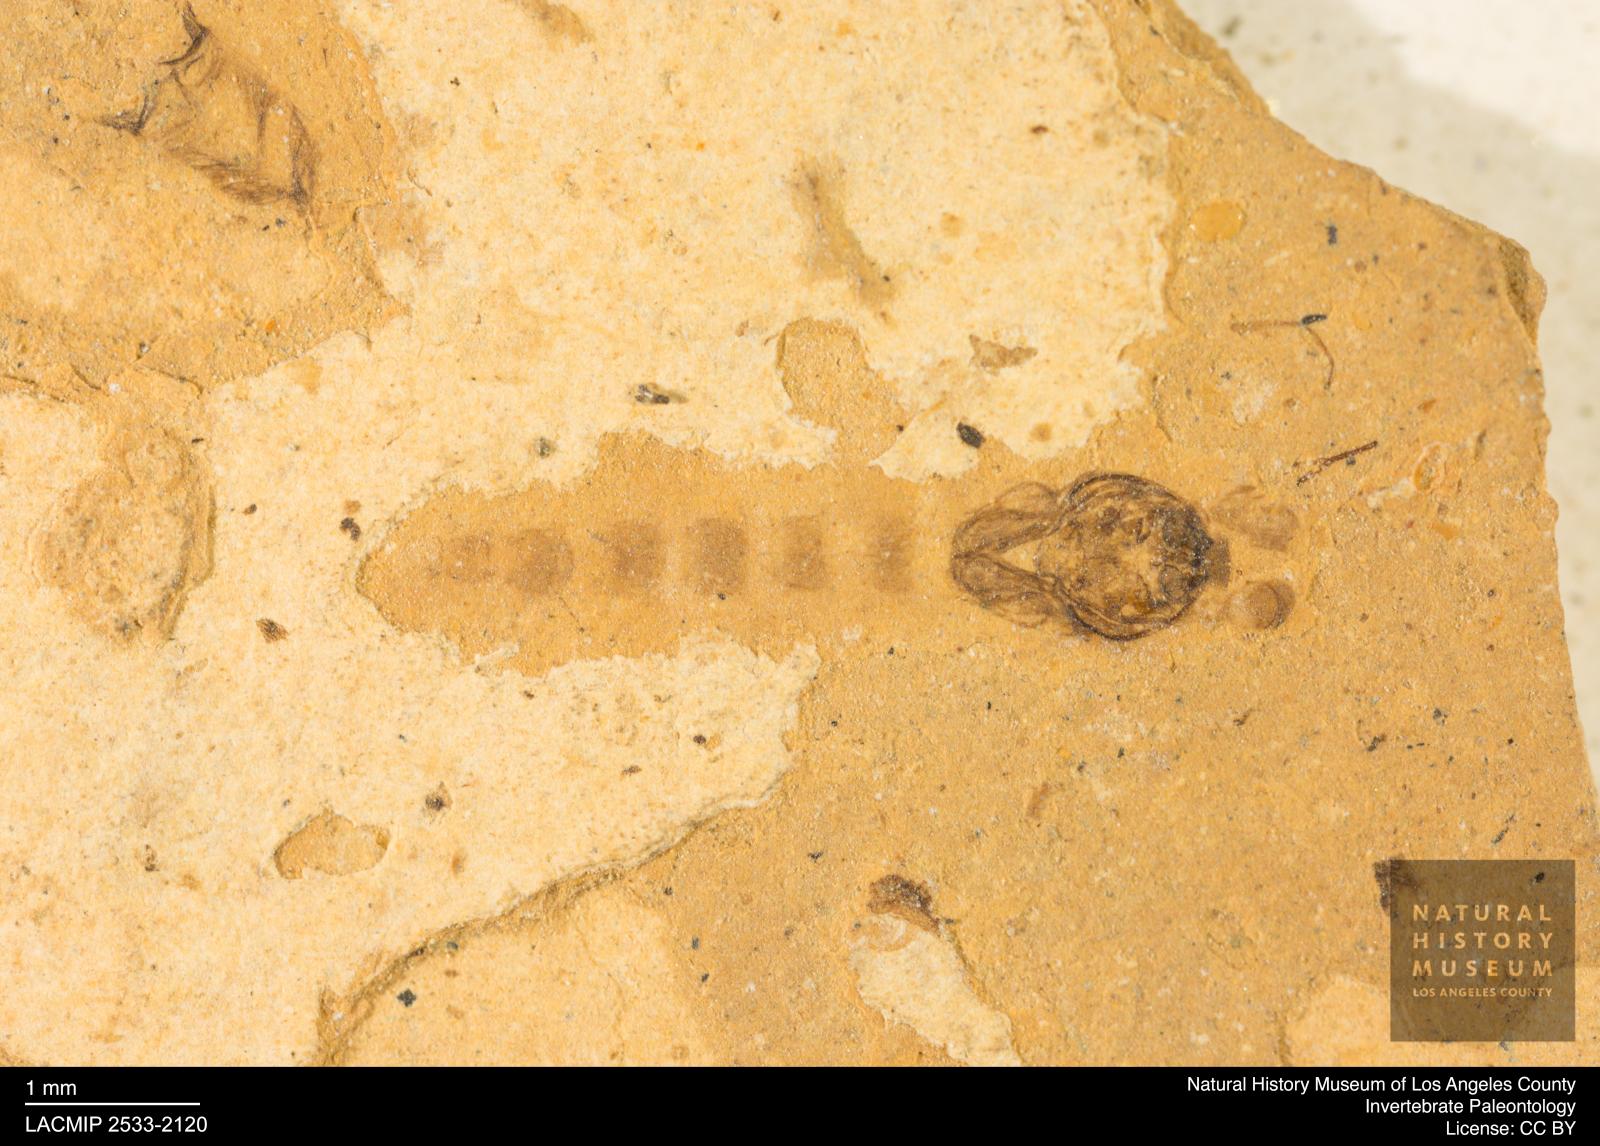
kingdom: Animalia
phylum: Arthropoda
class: Insecta
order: Diptera
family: Chironomidae
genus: Pelopiina
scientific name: Pelopiina
